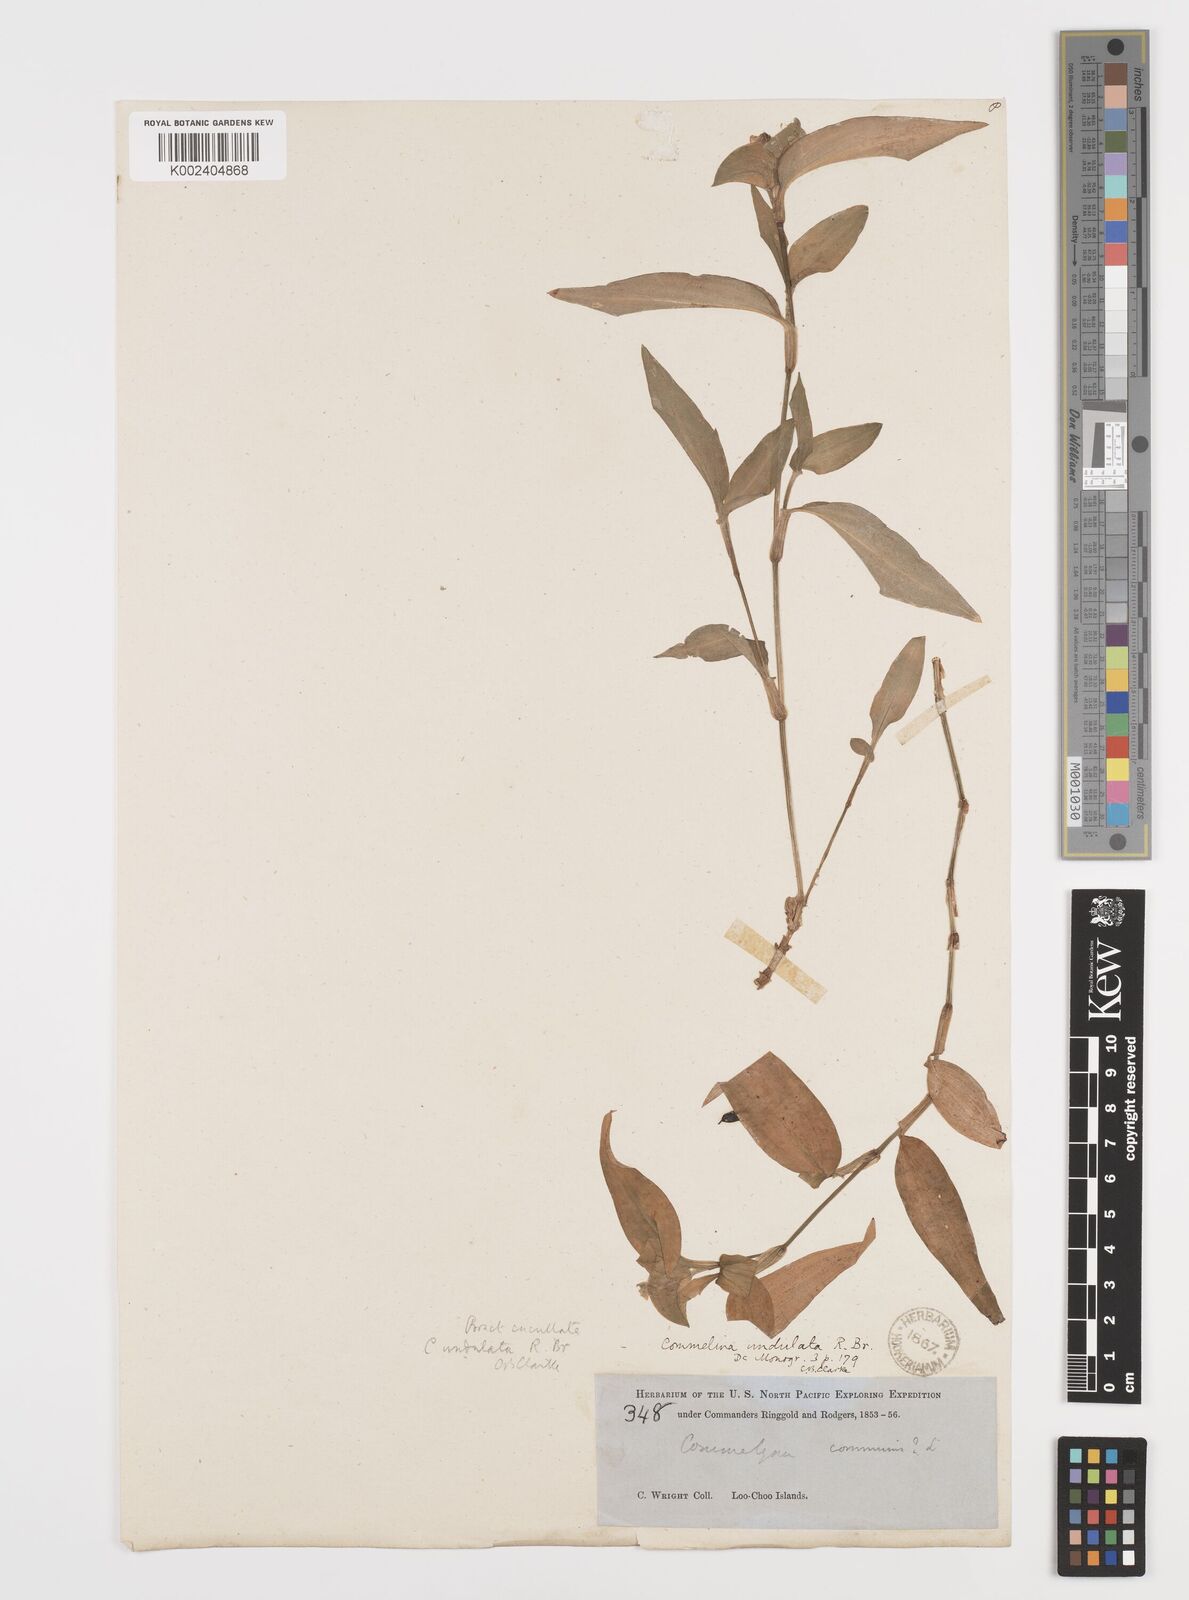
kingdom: Plantae
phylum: Tracheophyta
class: Liliopsida
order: Commelinales
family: Commelinaceae
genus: Commelina
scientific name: Commelina undulata
